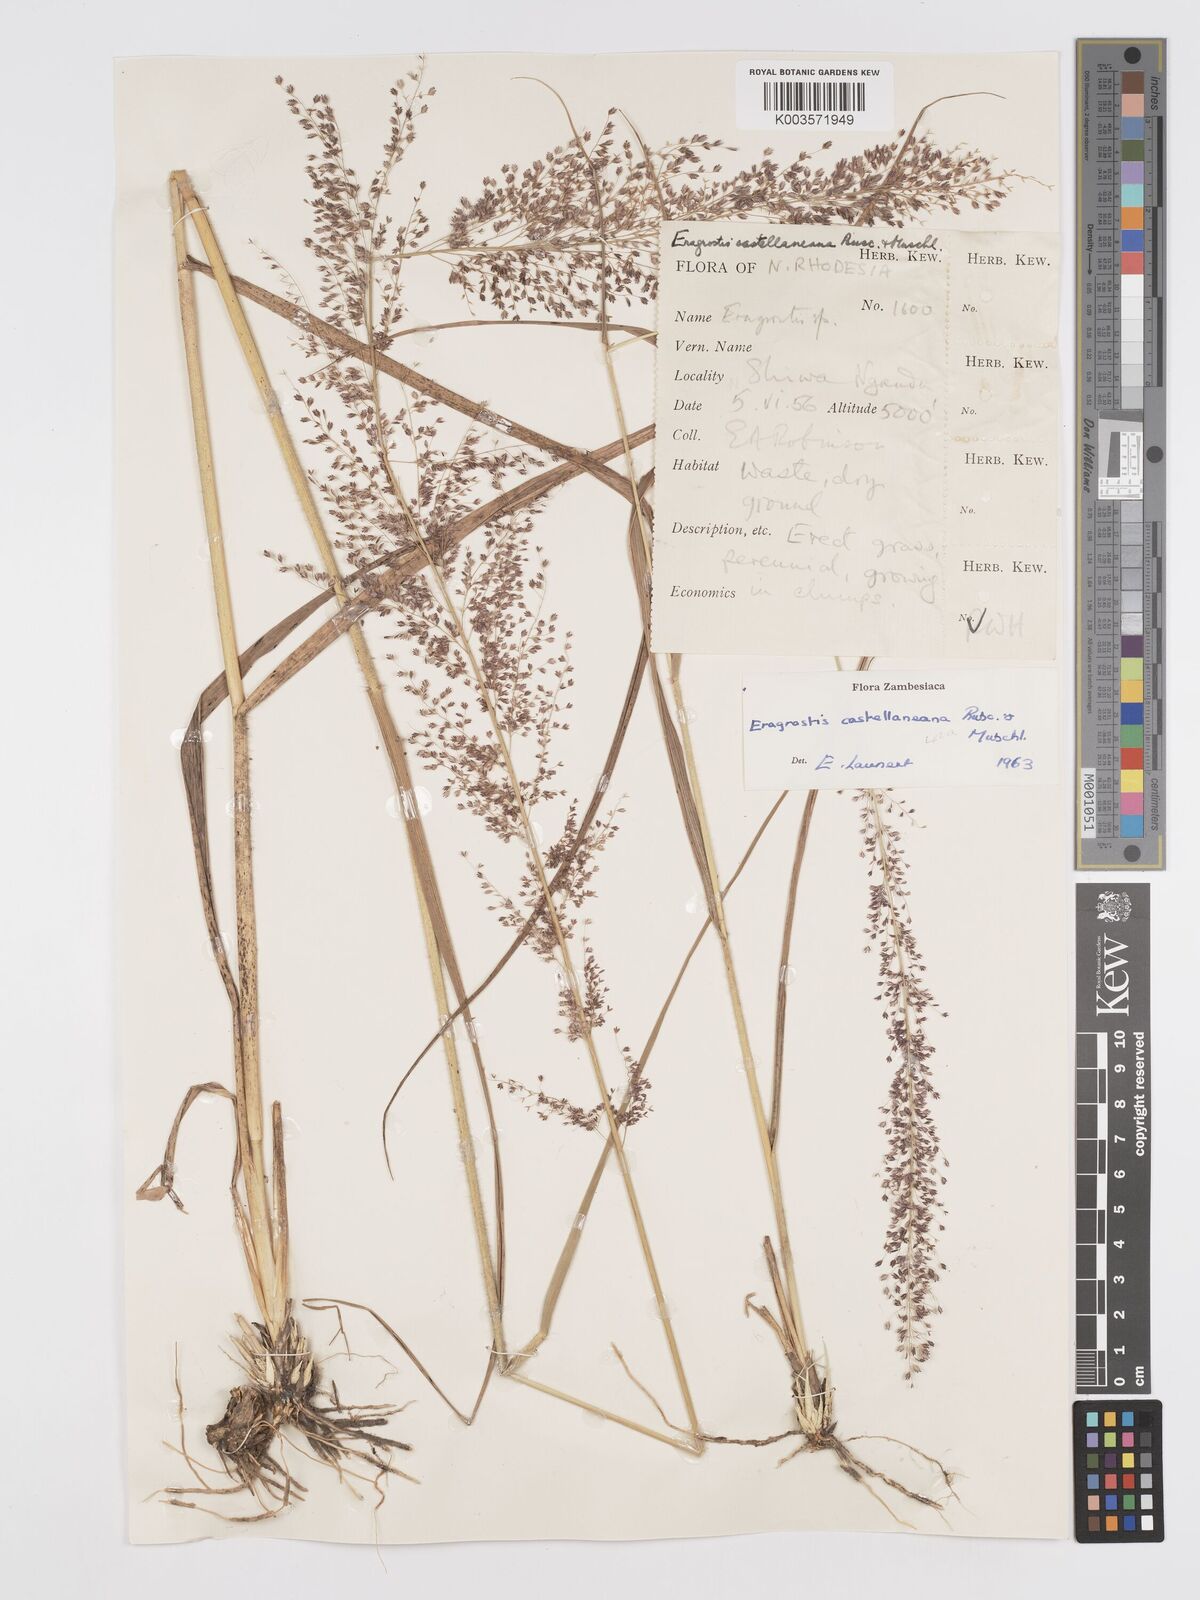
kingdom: Plantae
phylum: Tracheophyta
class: Liliopsida
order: Poales
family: Poaceae
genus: Eragrostis
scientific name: Eragrostis castellaneana
